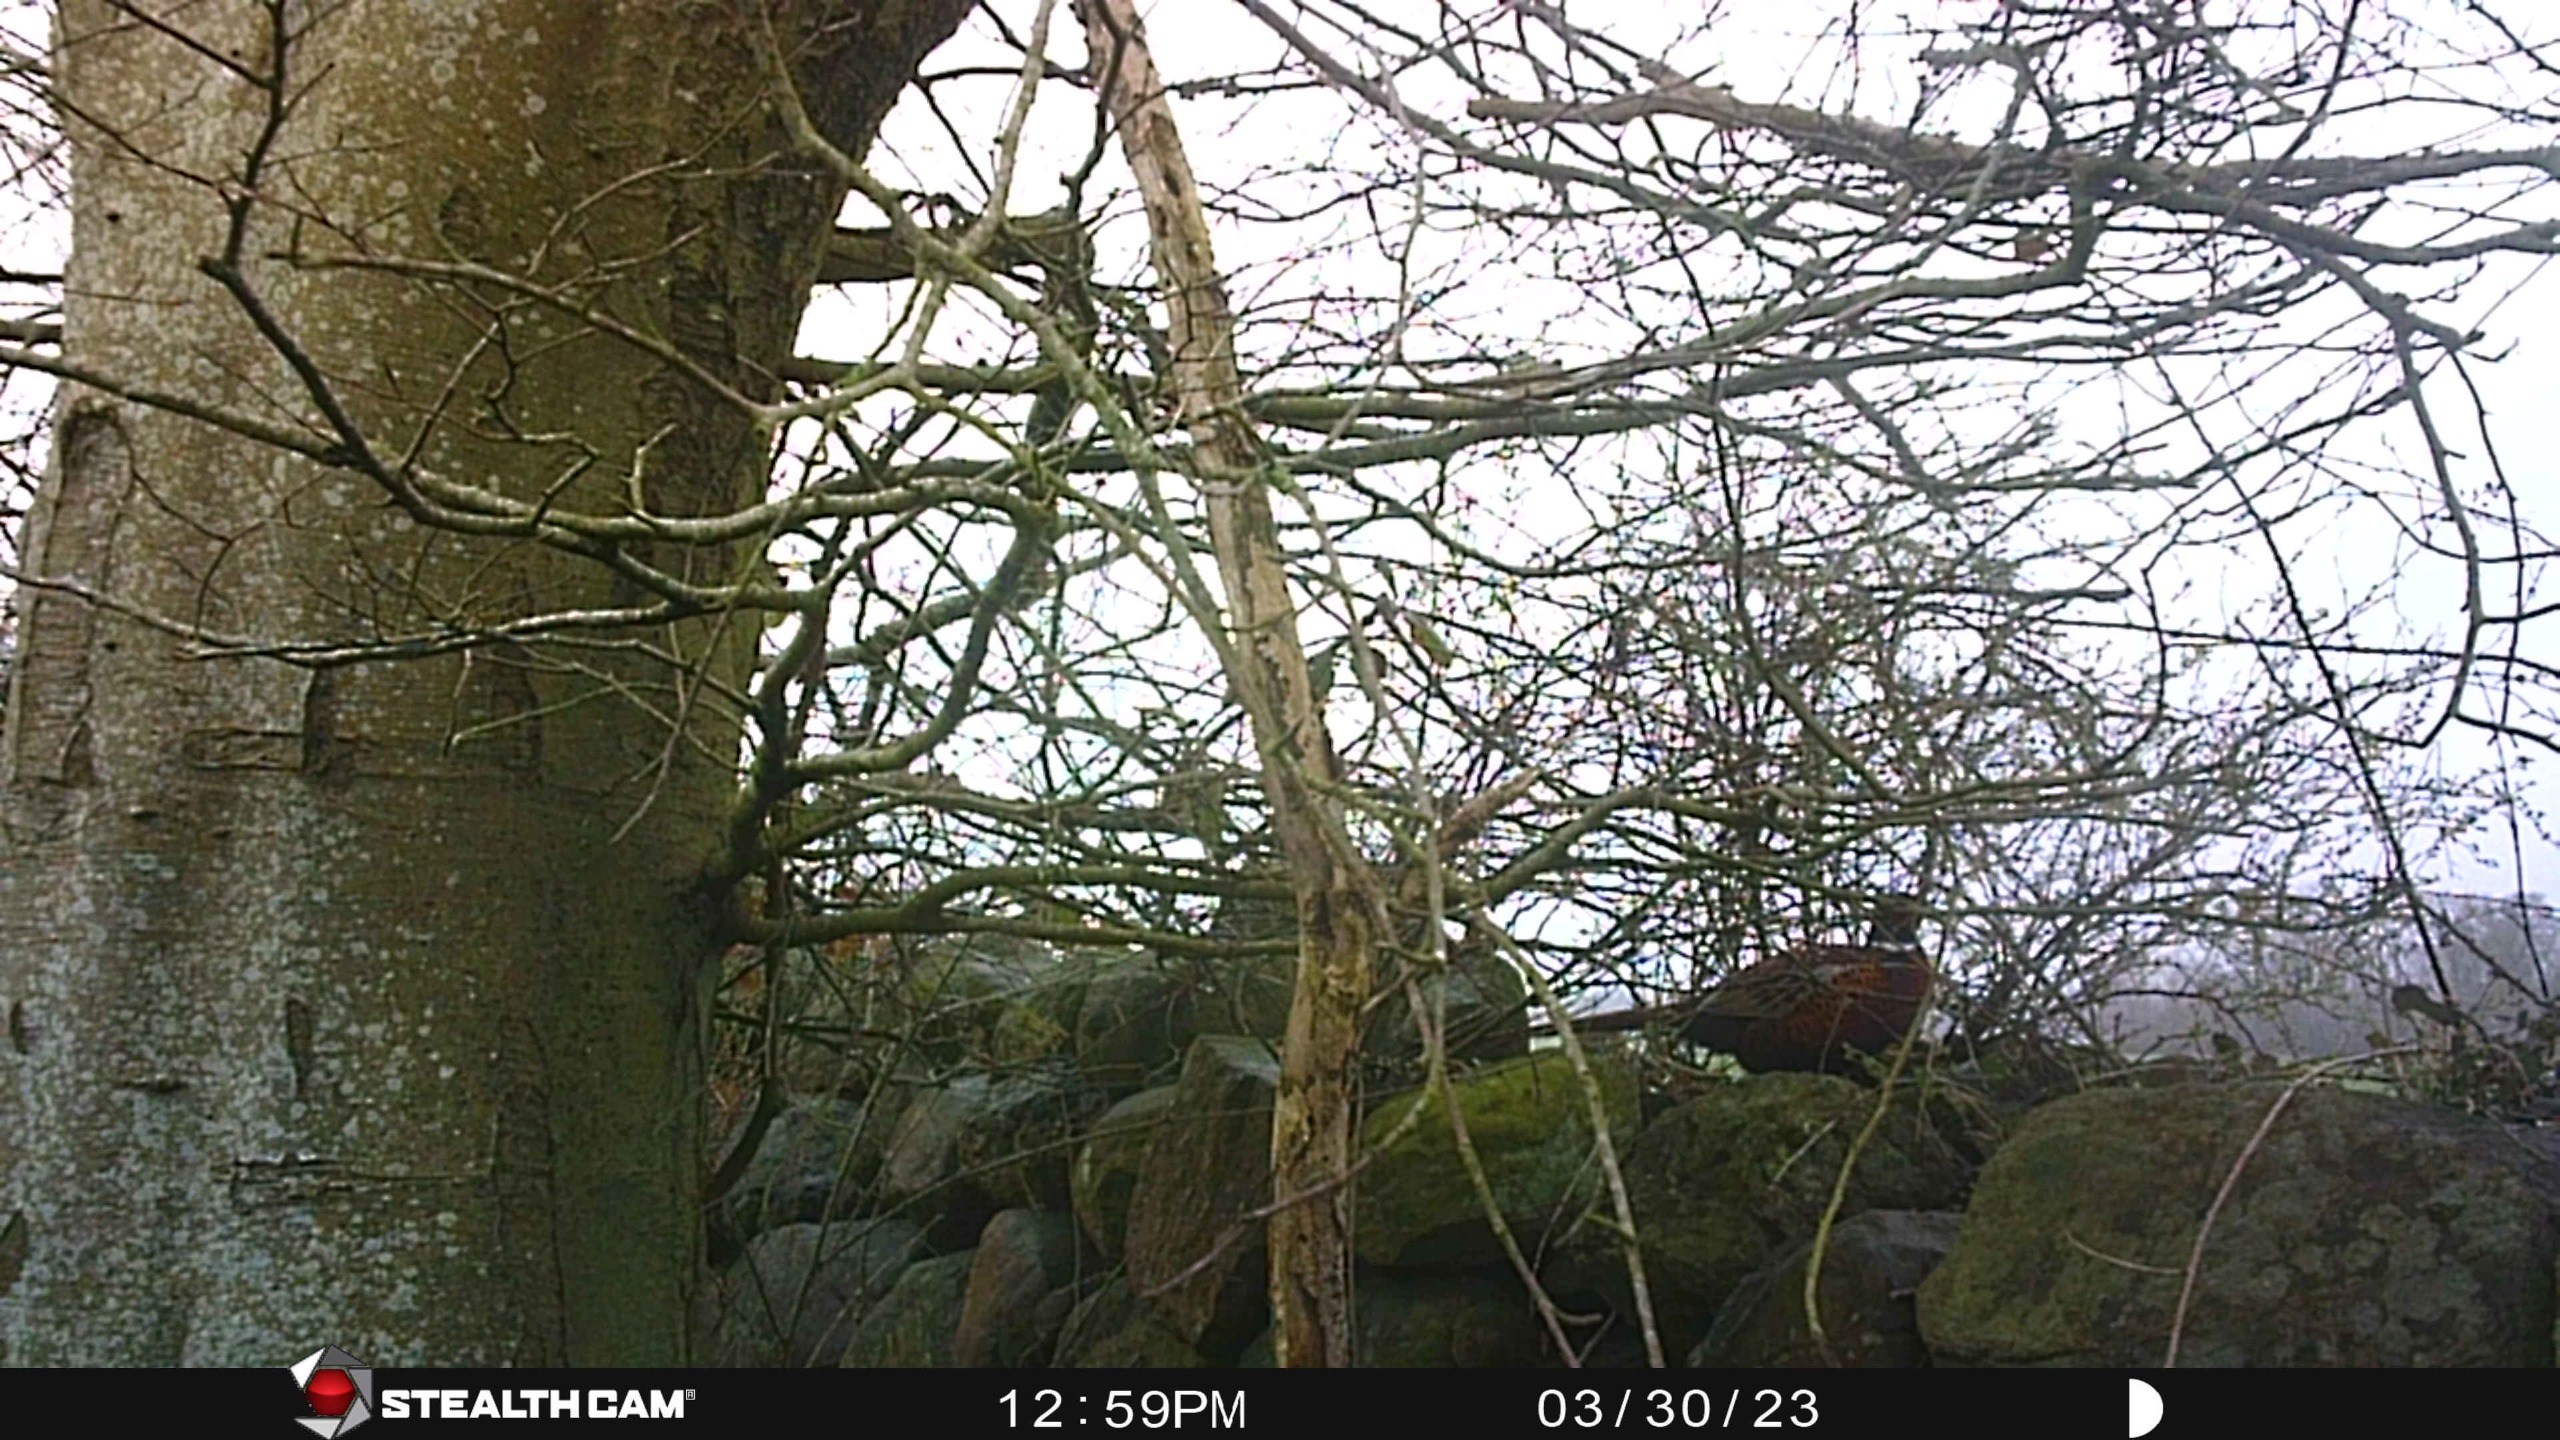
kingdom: Animalia
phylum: Chordata
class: Aves
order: Galliformes
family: Phasianidae
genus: Phasianus
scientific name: Phasianus colchicus
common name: Fasan
